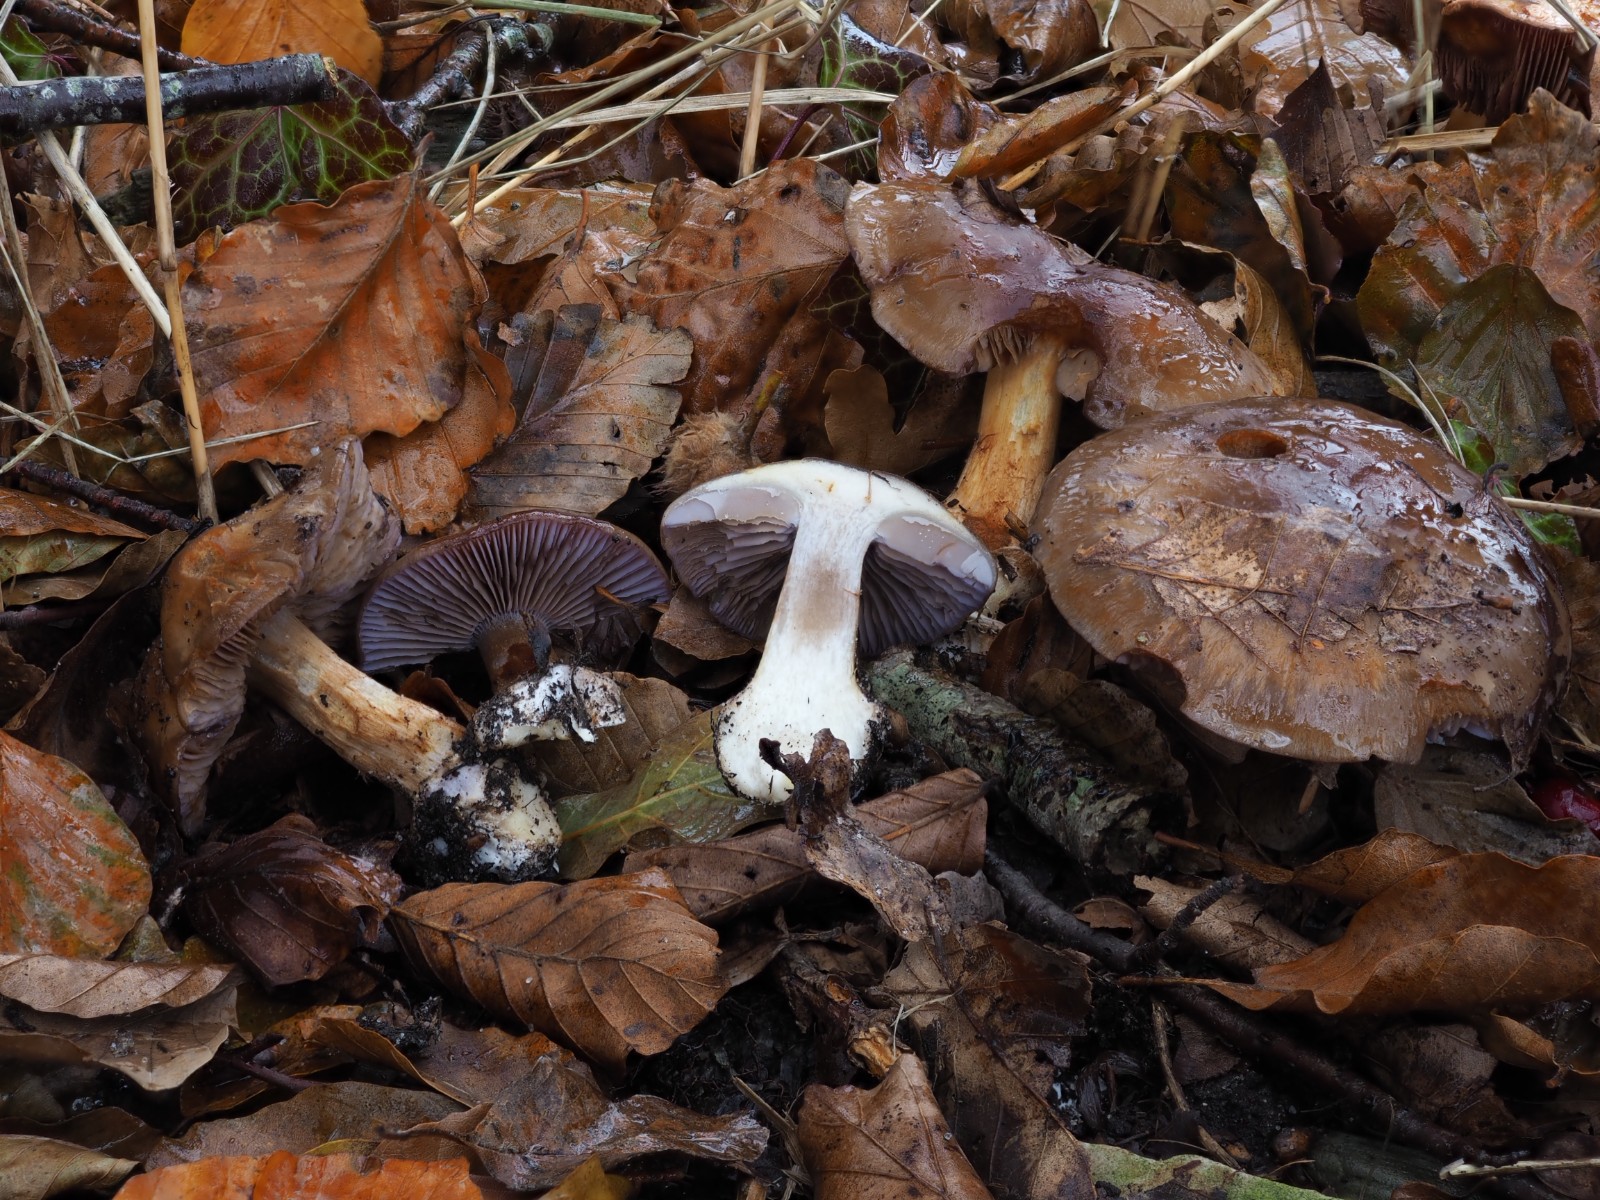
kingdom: Fungi
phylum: Basidiomycota
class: Agaricomycetes
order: Agaricales
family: Cortinariaceae
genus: Phlegmacium
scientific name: Phlegmacium viridocoeruleum
